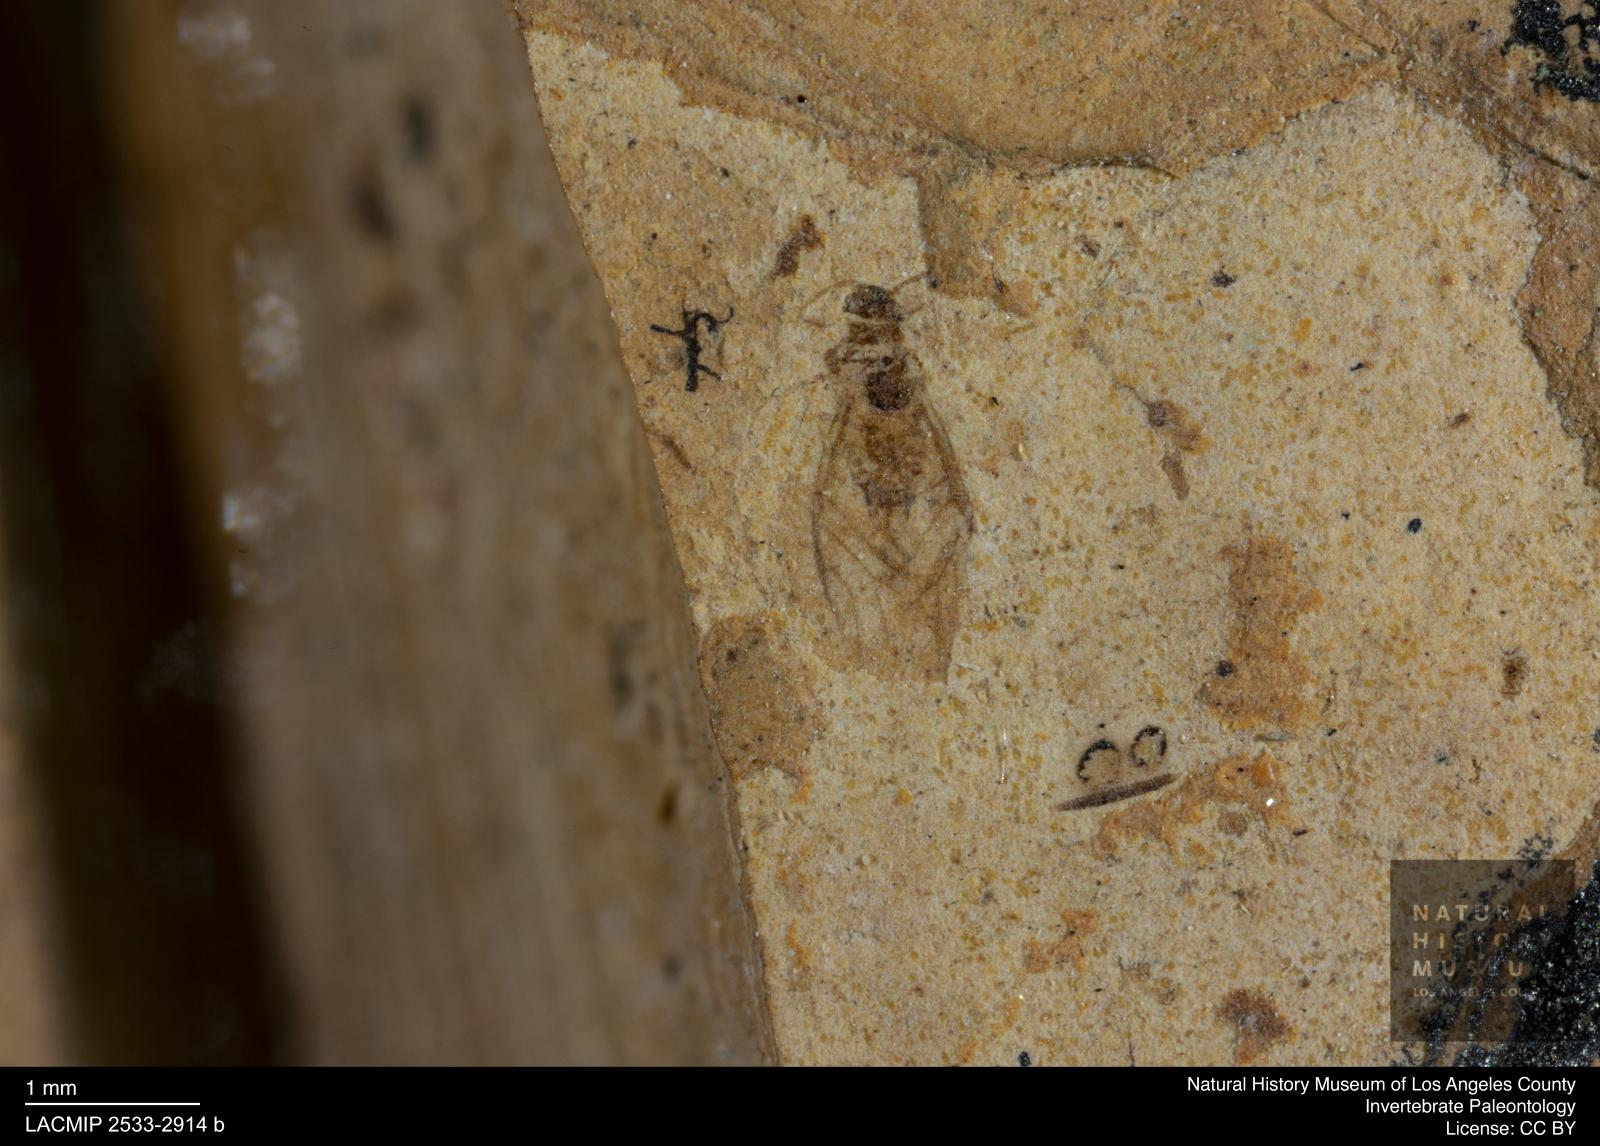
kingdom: Animalia
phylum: Arthropoda
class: Insecta
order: Hemiptera
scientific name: Hemiptera
